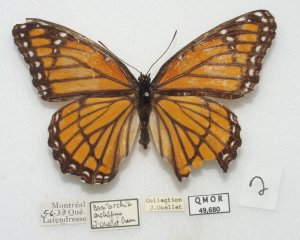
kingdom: Animalia
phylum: Arthropoda
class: Insecta
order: Lepidoptera
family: Nymphalidae
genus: Limenitis
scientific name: Limenitis archippus
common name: Viceroy
